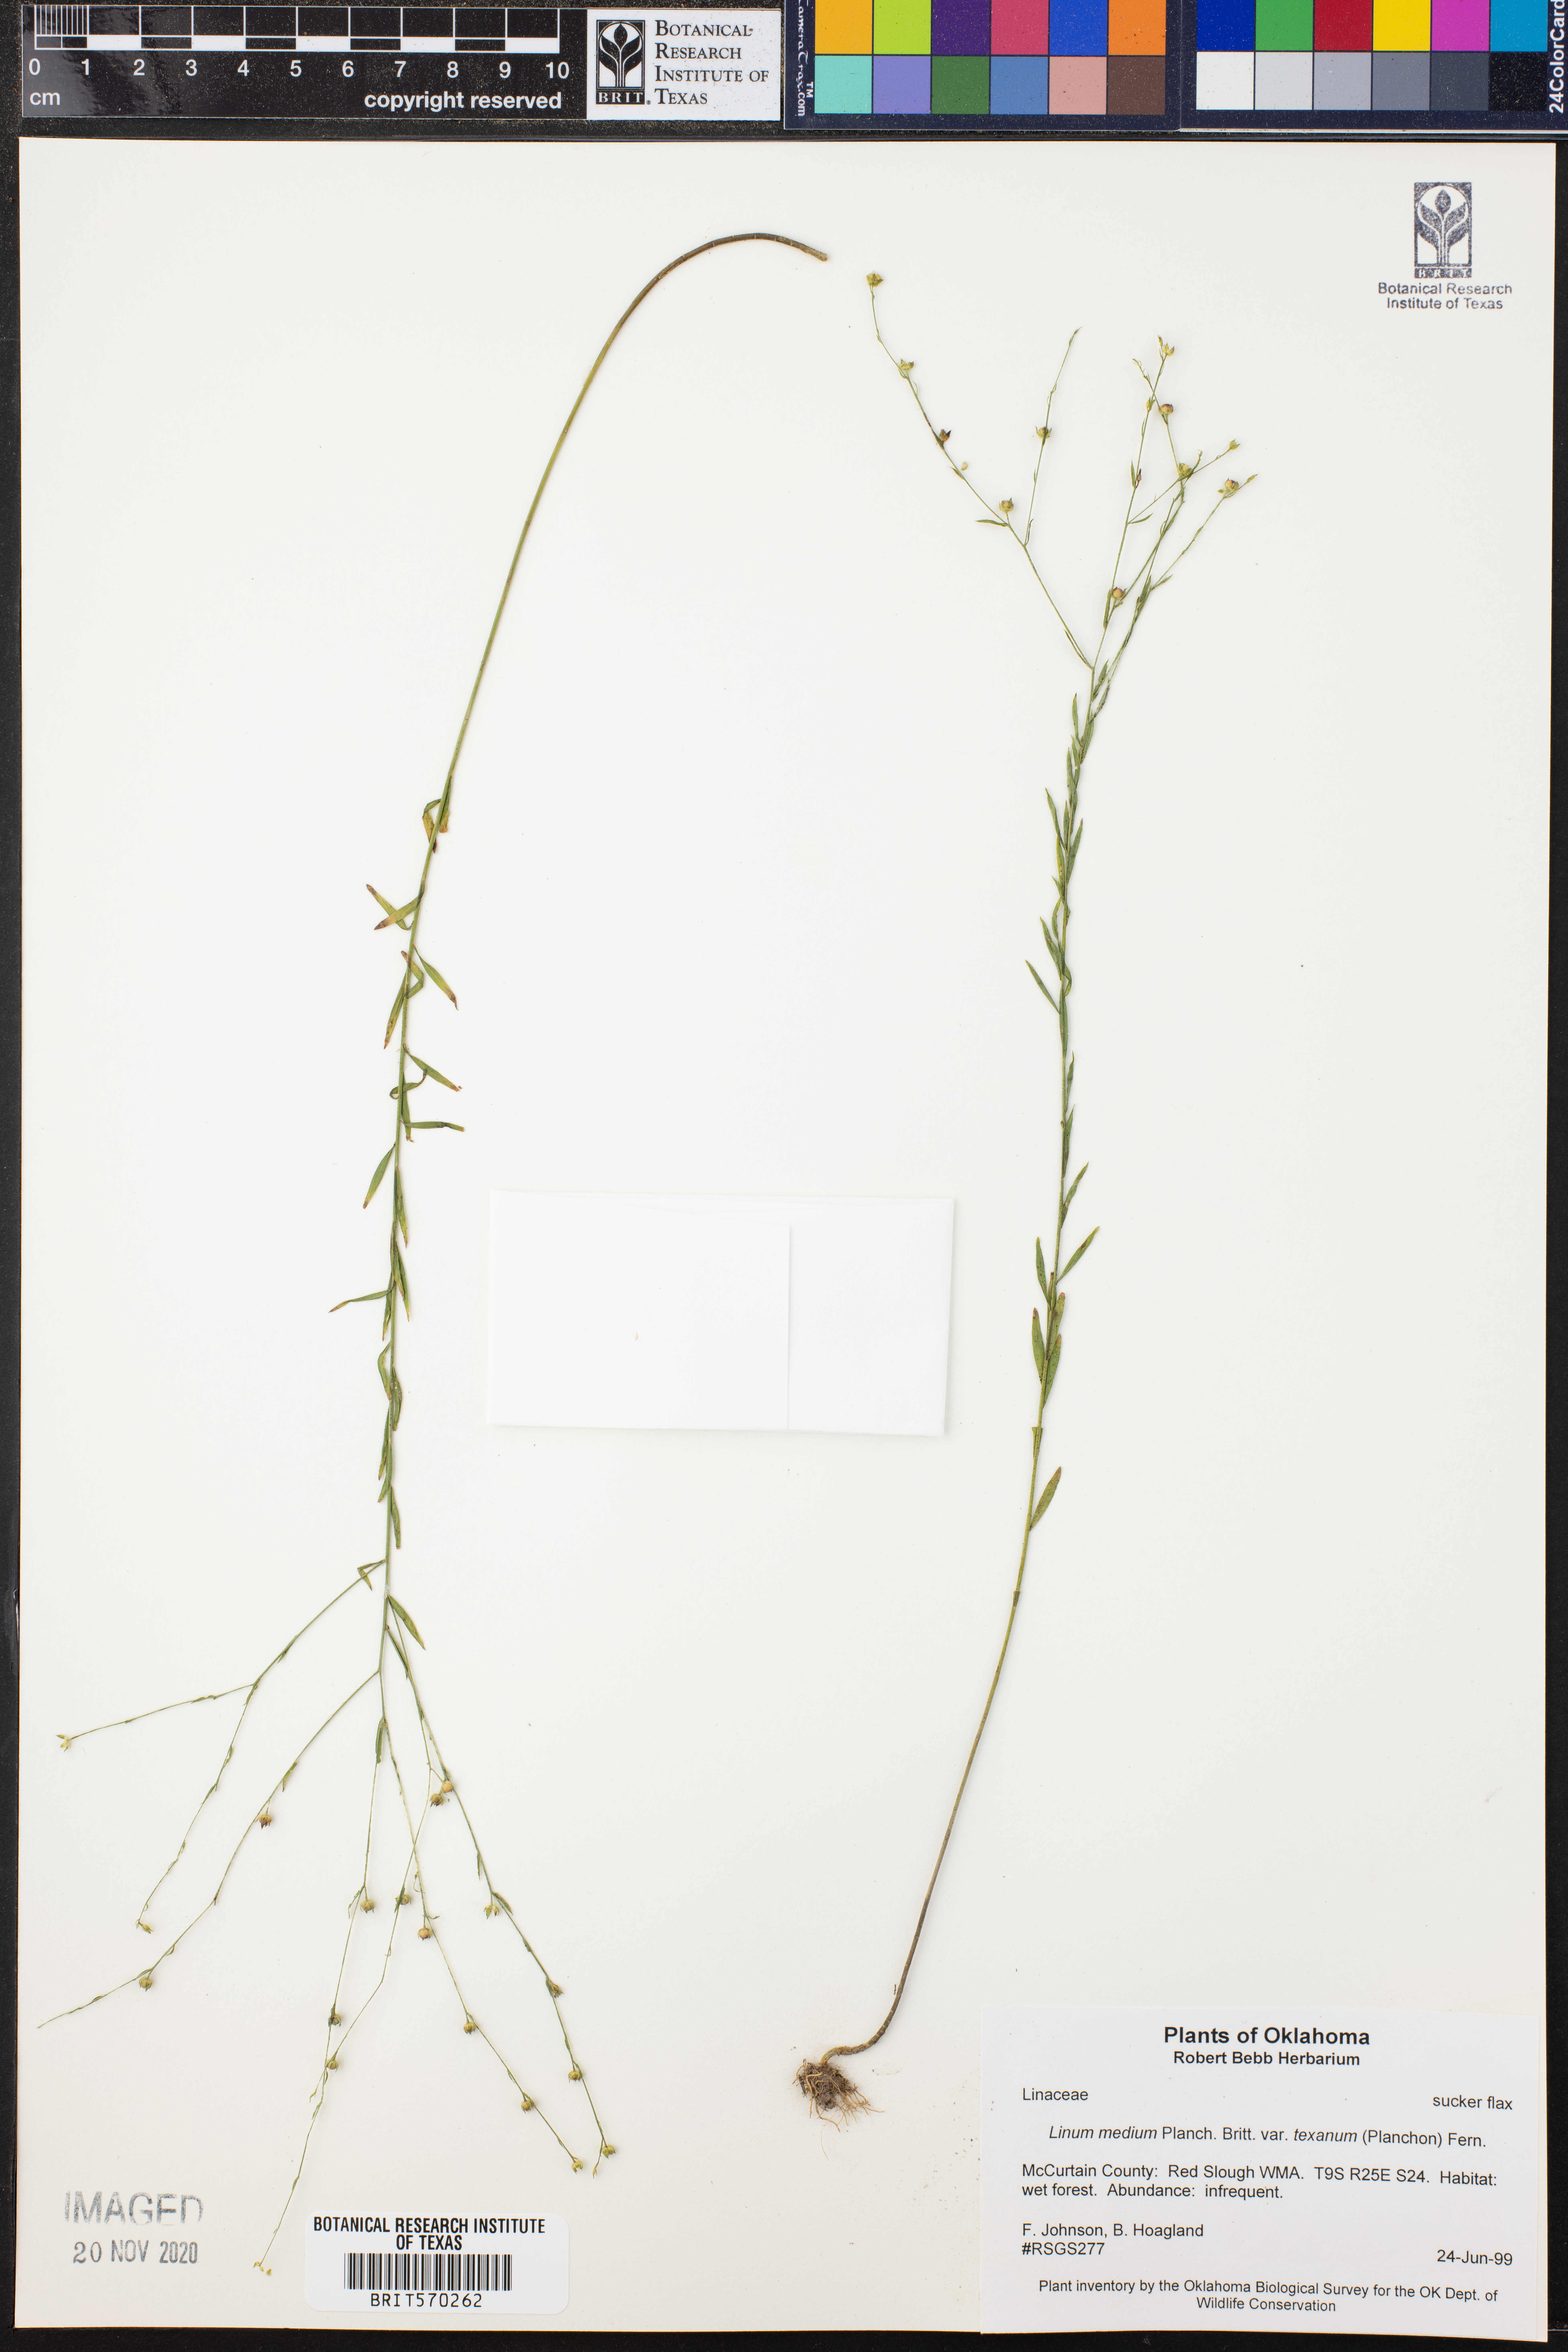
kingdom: Plantae
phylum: Tracheophyta
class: Magnoliopsida
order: Malpighiales
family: Linaceae
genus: Linum
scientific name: Linum medium
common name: Stiff yellow flax
